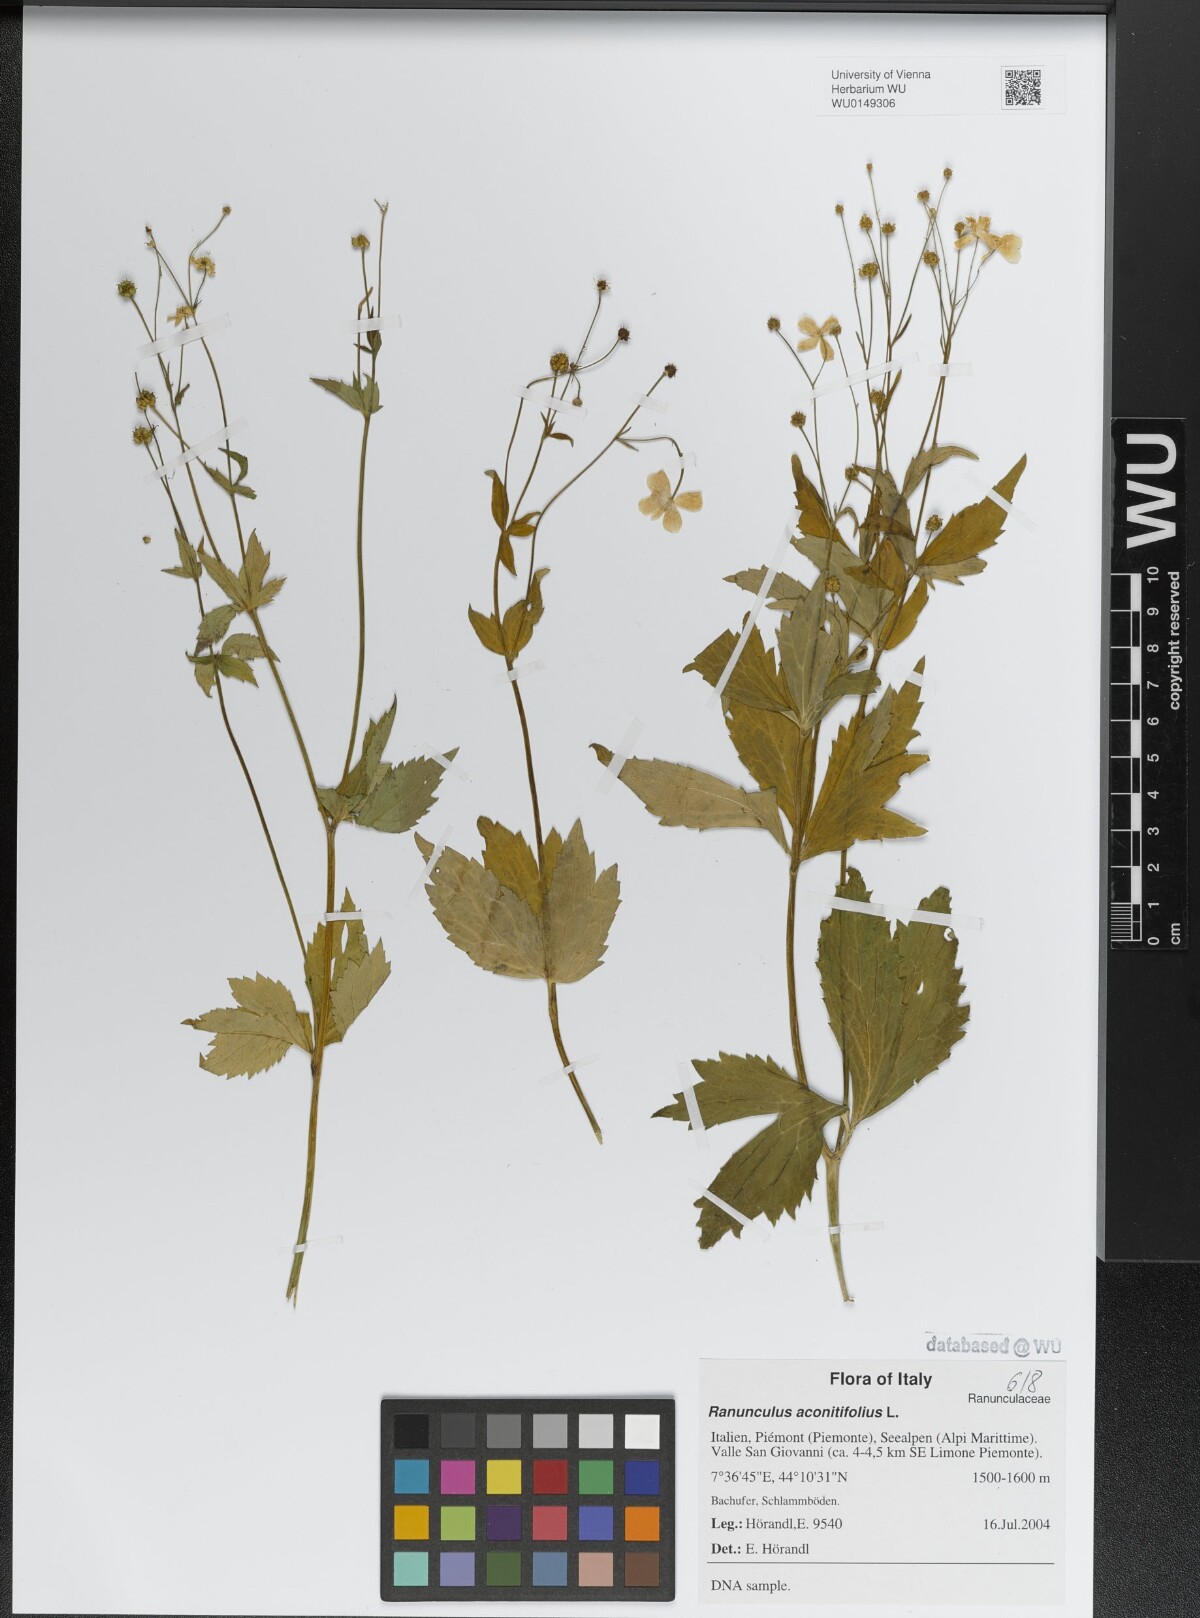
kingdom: Plantae
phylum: Tracheophyta
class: Magnoliopsida
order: Ranunculales
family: Ranunculaceae
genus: Ranunculus
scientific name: Ranunculus aconitifolius
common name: Aconite-leaved buttercup
